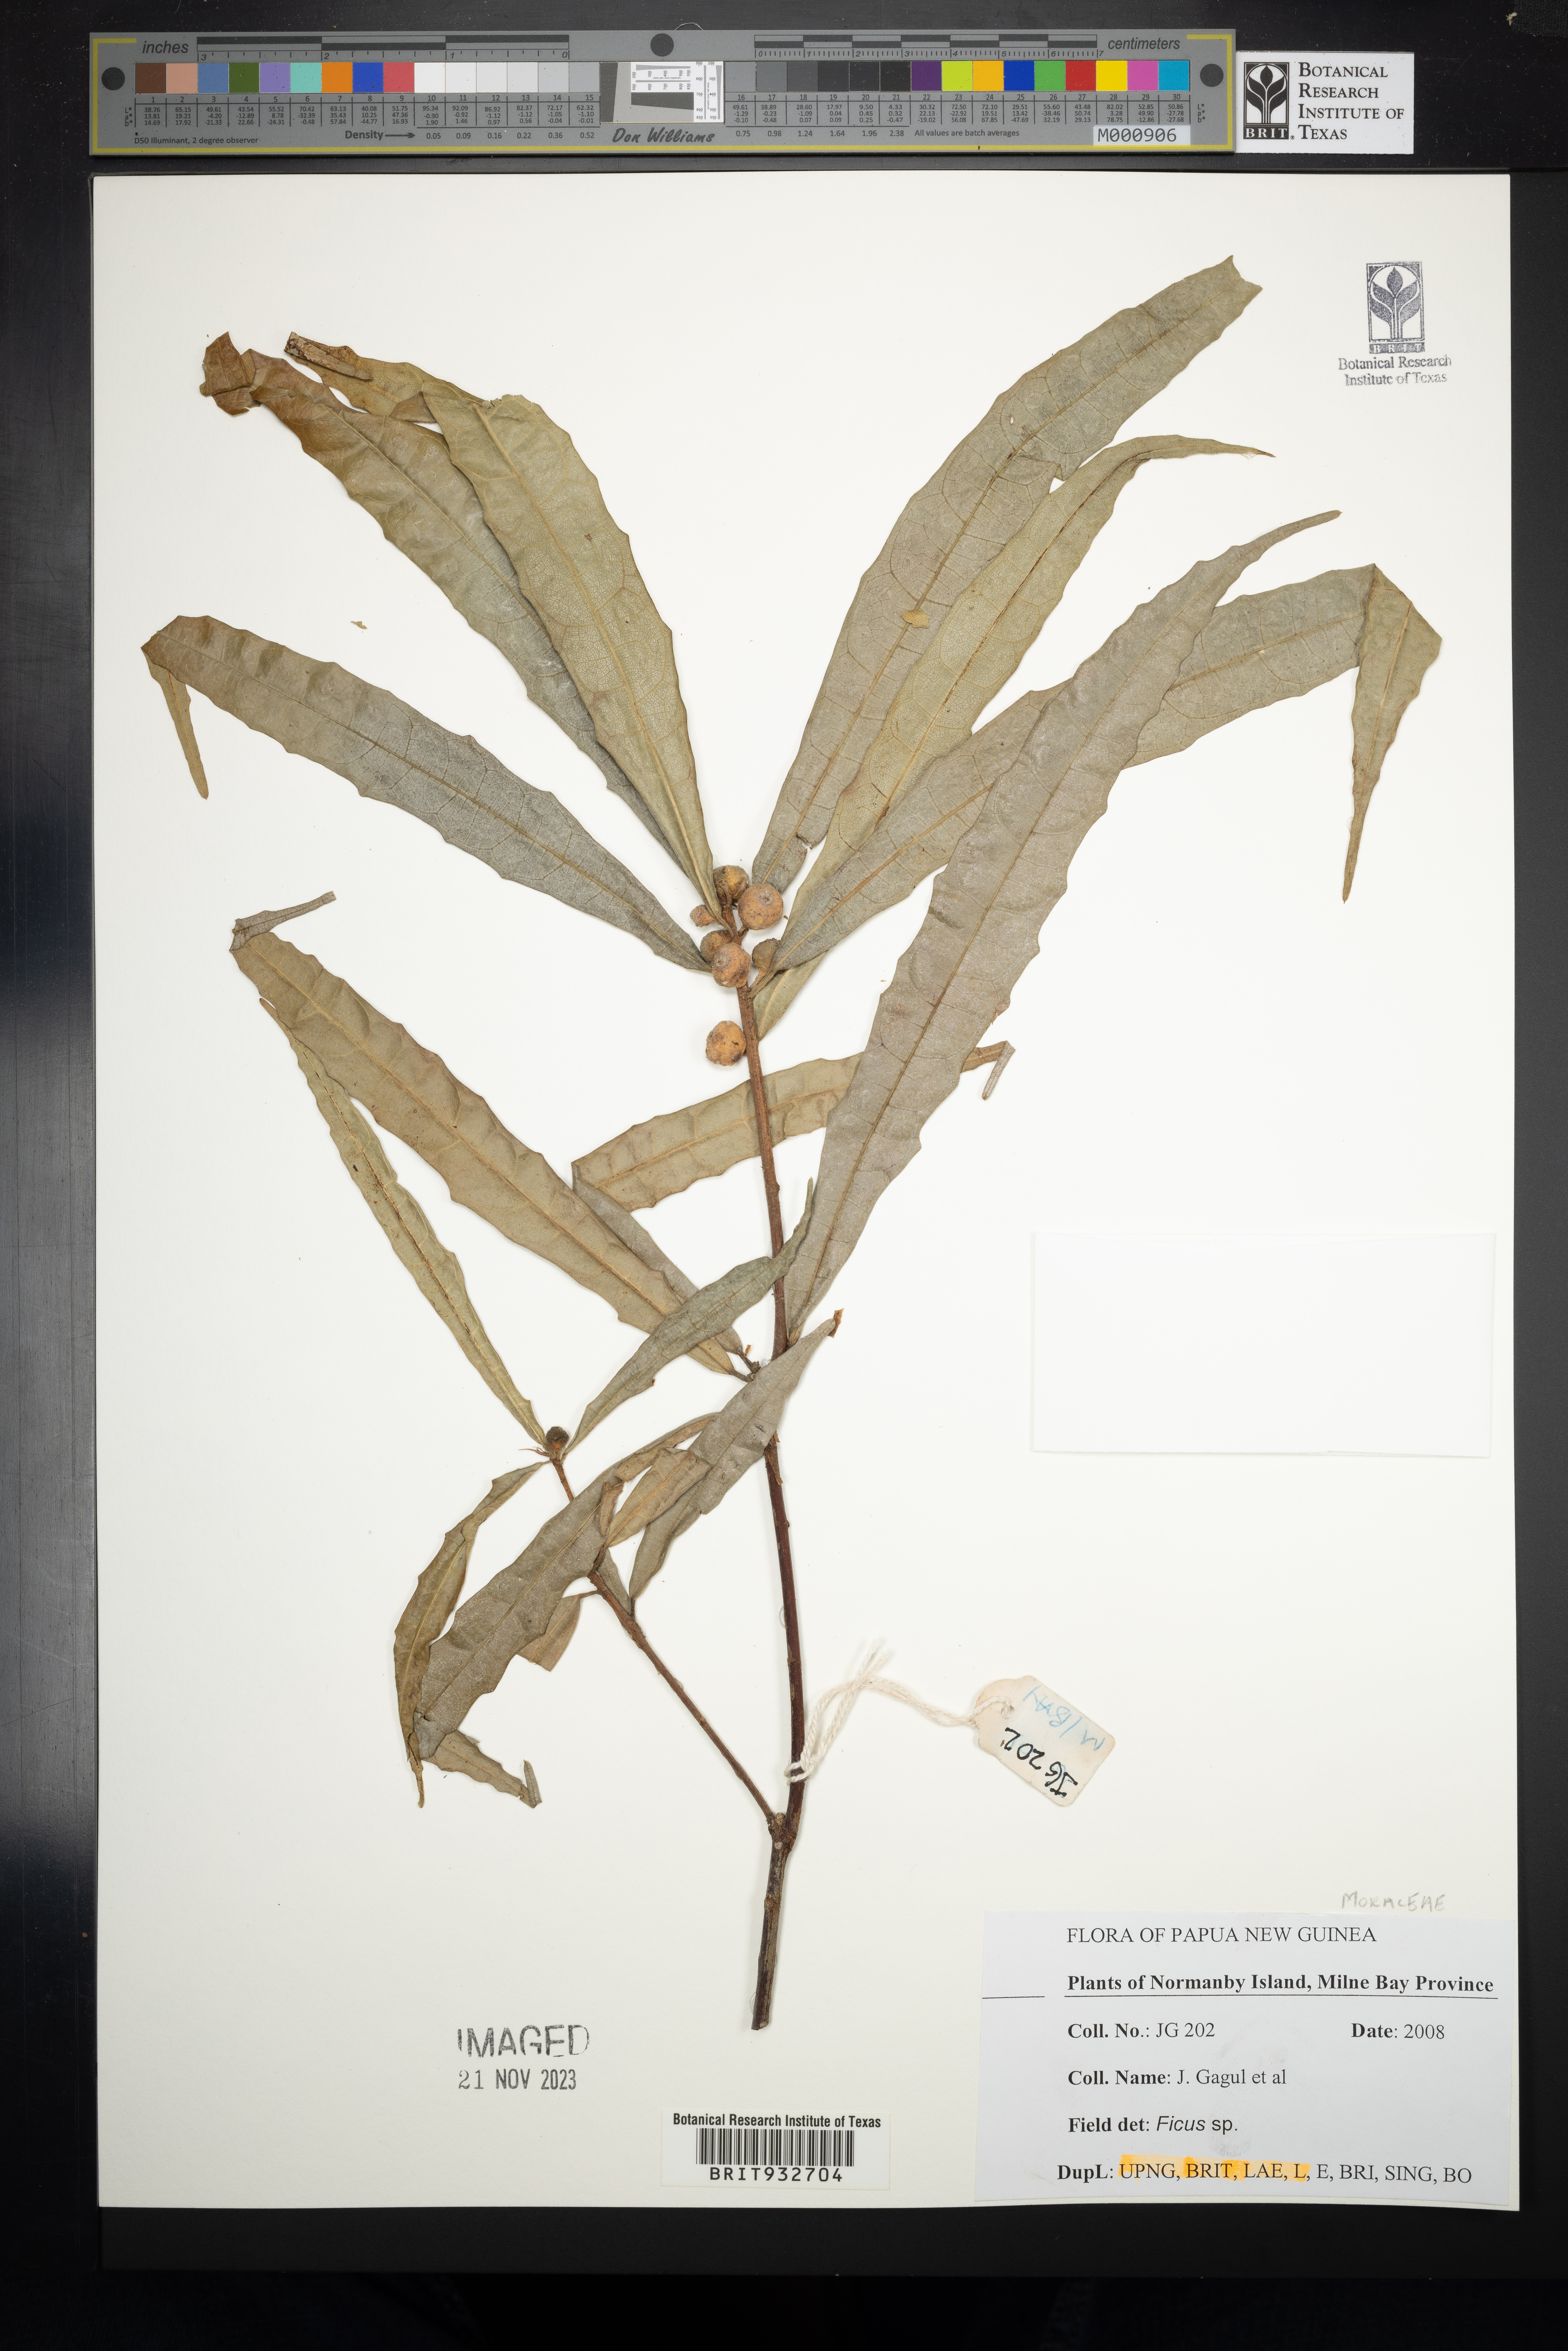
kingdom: Plantae
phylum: Tracheophyta
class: Magnoliopsida
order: Rosales
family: Moraceae
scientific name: Moraceae
